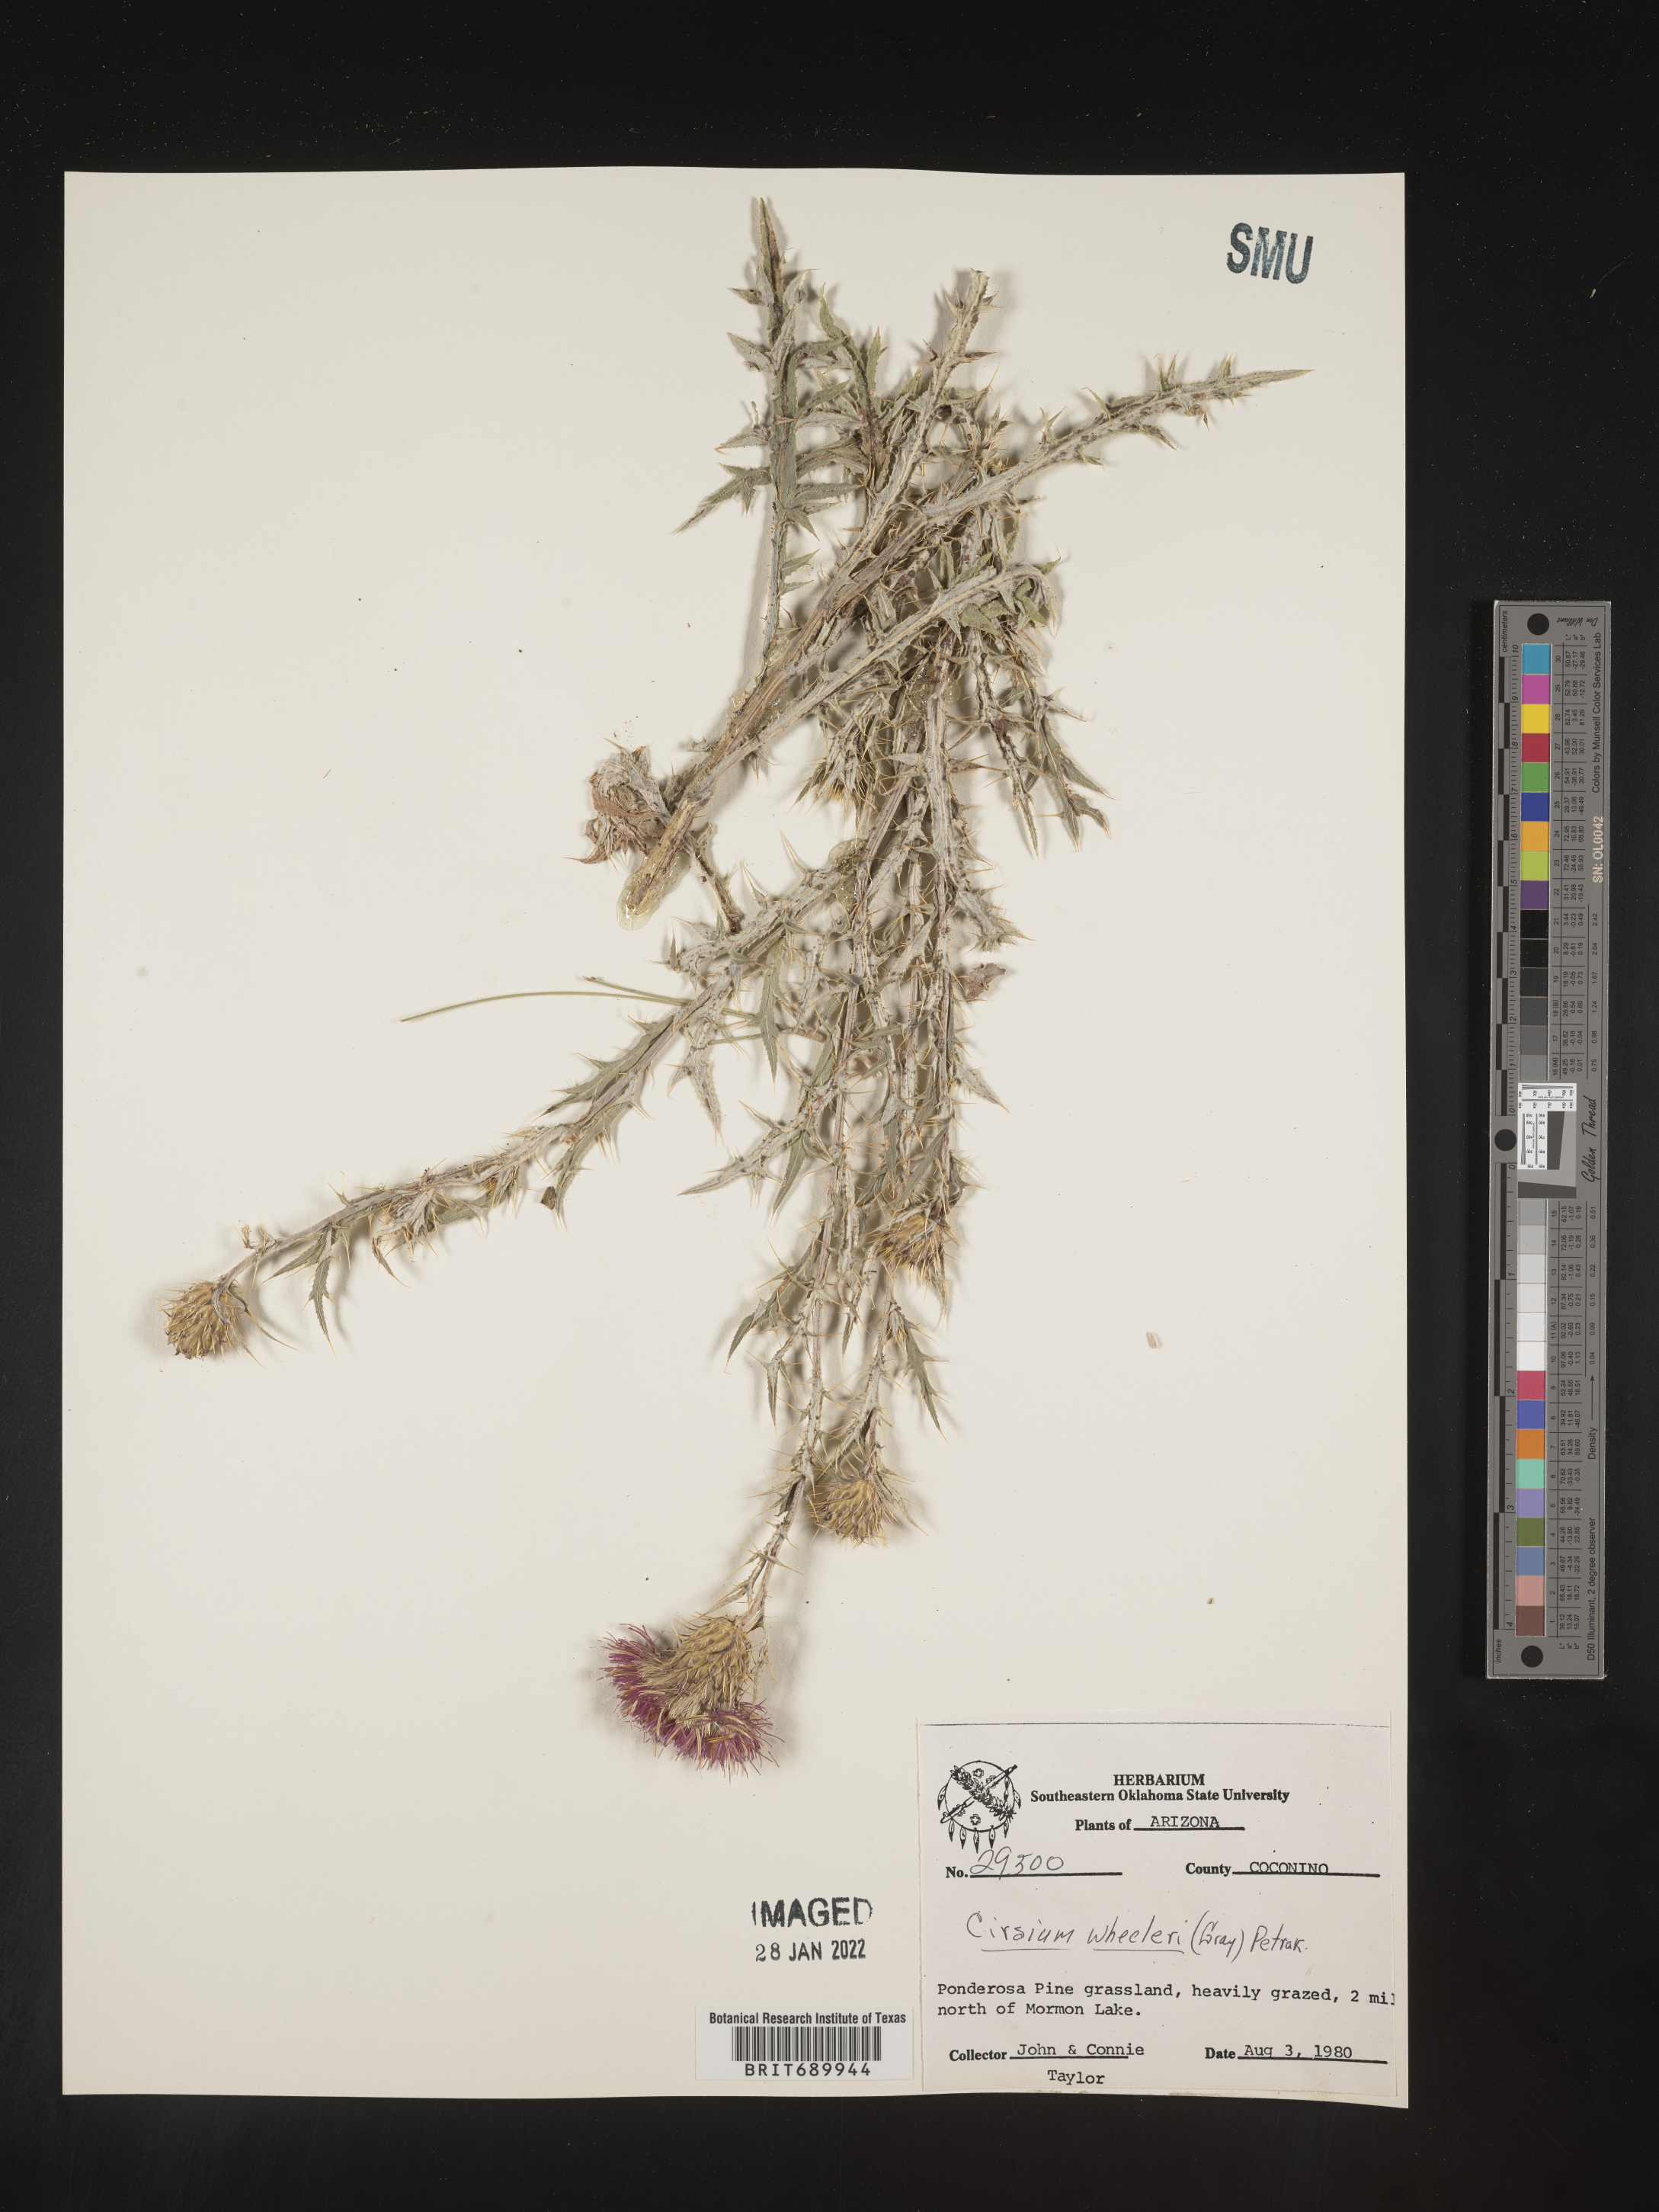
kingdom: Plantae
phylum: Tracheophyta
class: Magnoliopsida
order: Asterales
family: Asteraceae
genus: Cirsium
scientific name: Cirsium wheeleri
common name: Wheeler's thistle
